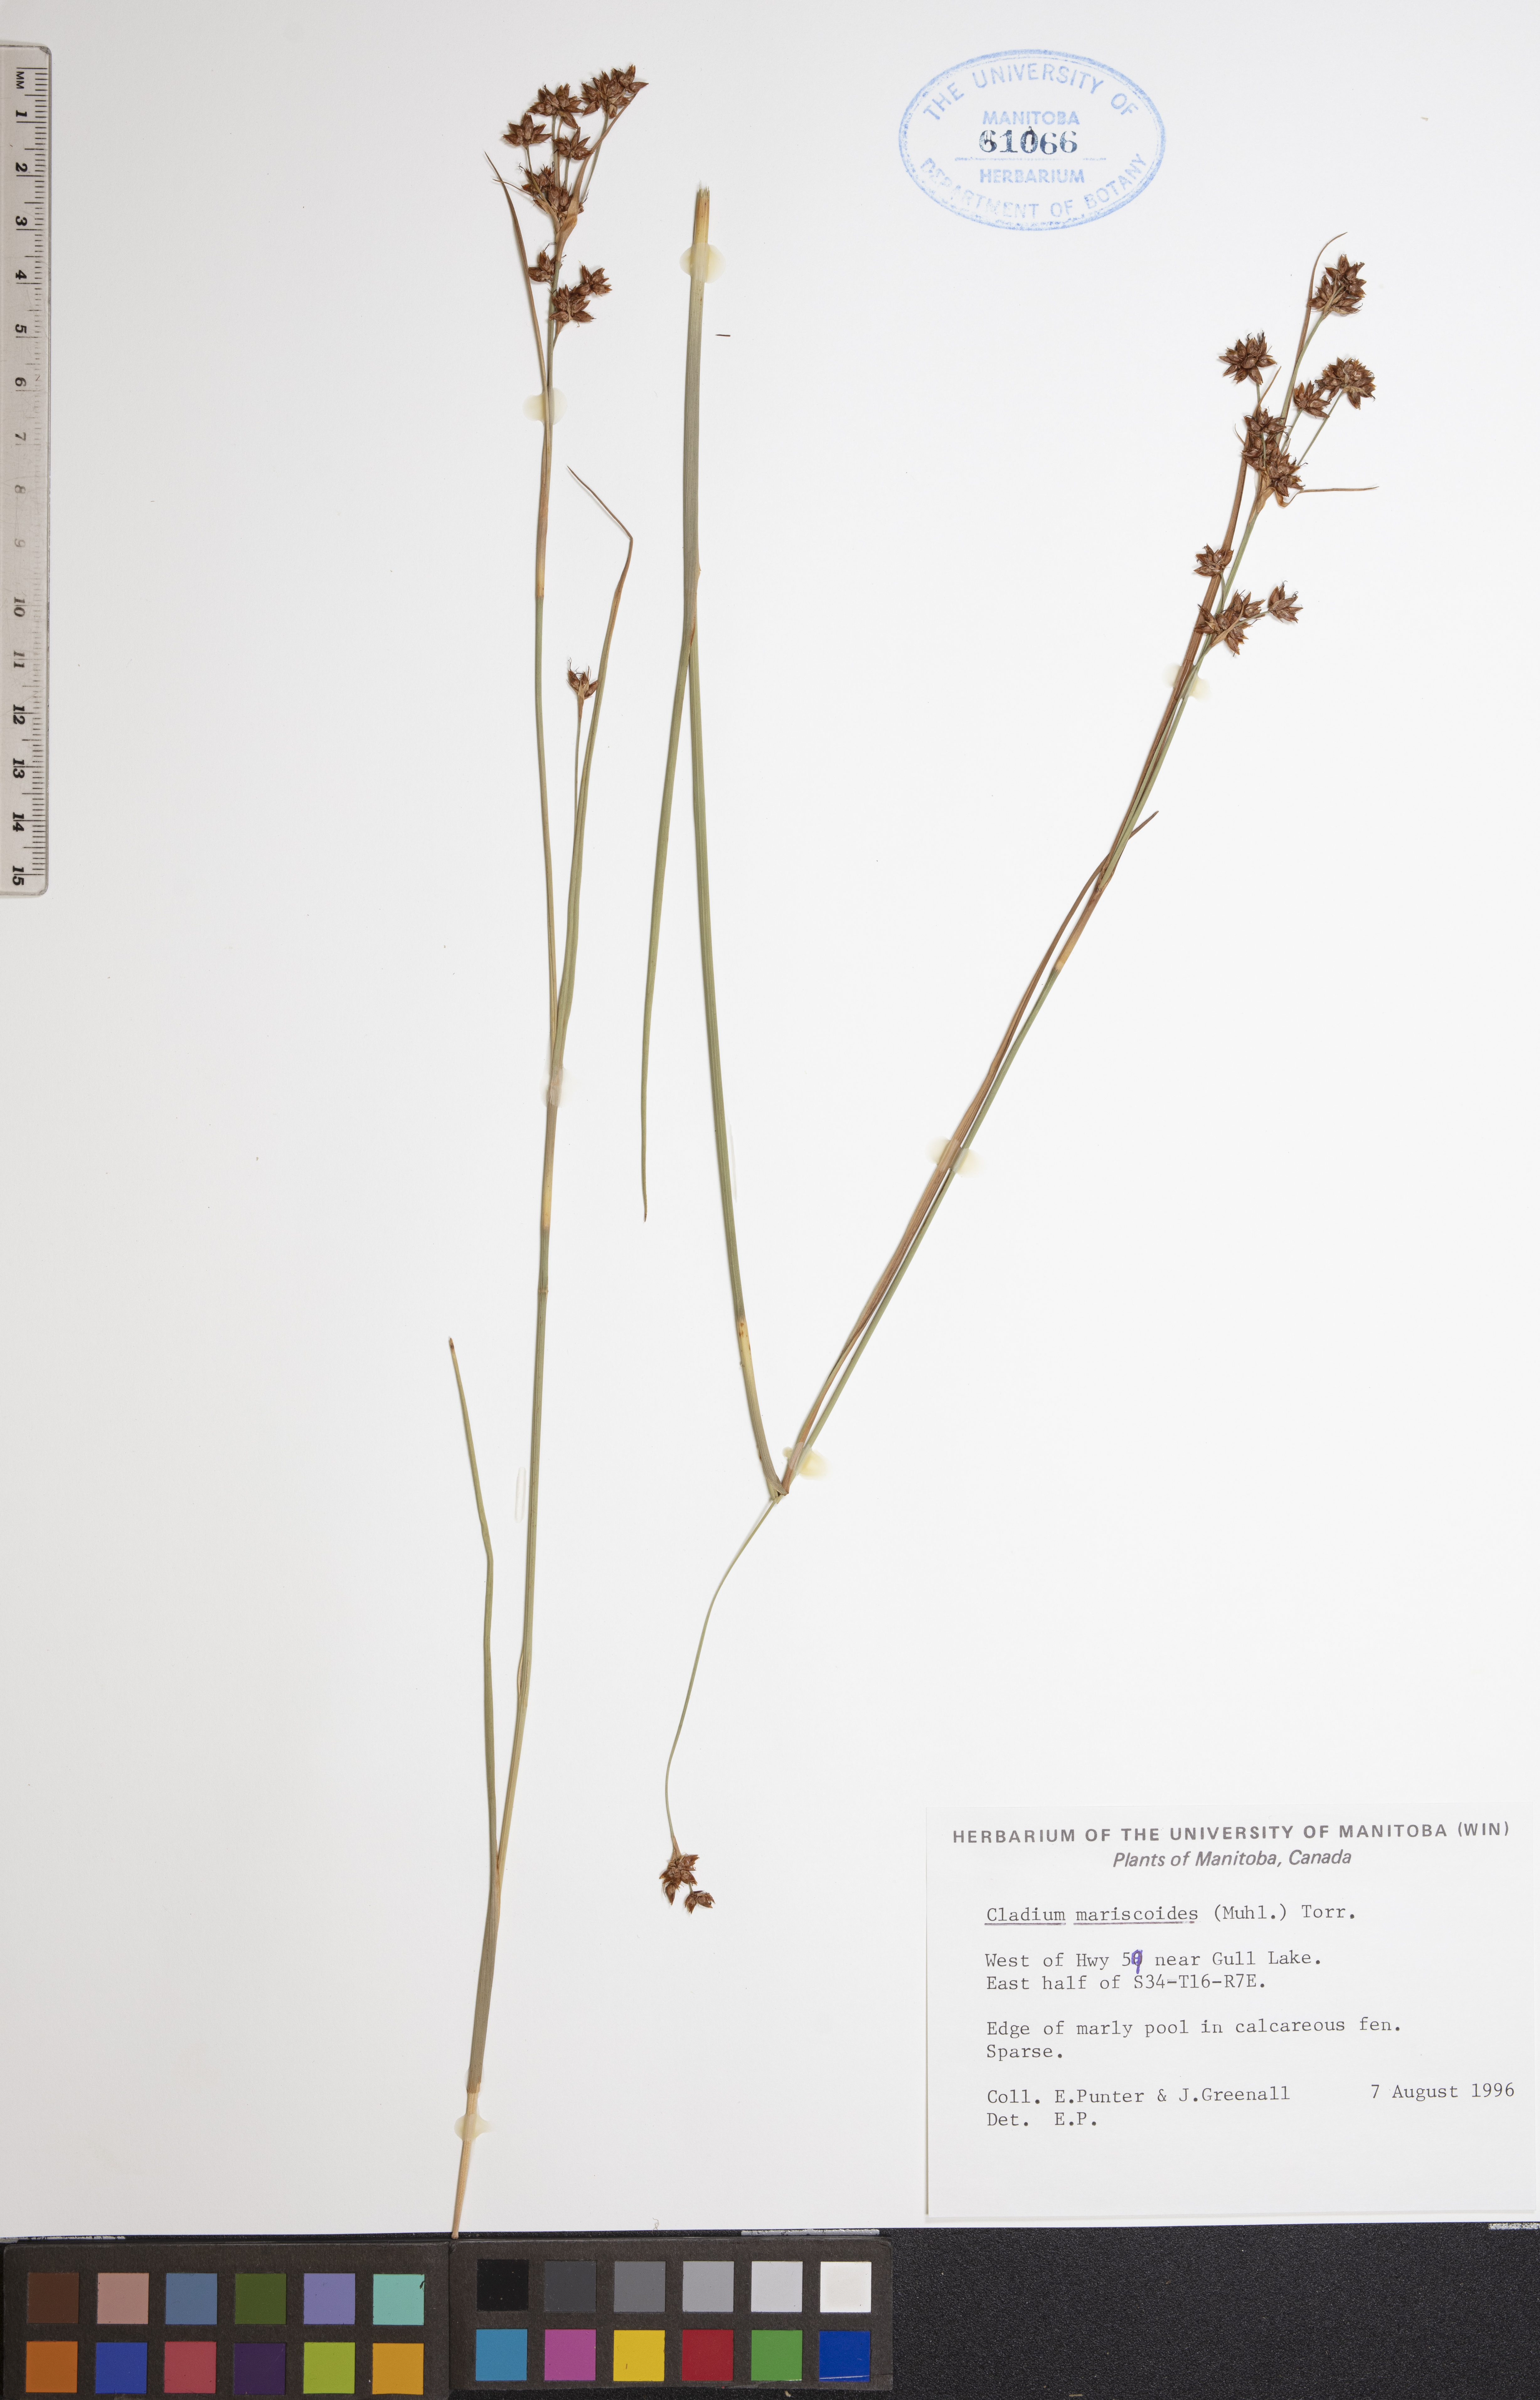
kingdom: Plantae
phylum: Tracheophyta
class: Liliopsida
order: Poales
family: Cyperaceae
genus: Cladium
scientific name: Cladium mariscoides
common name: Smooth sawgrass
